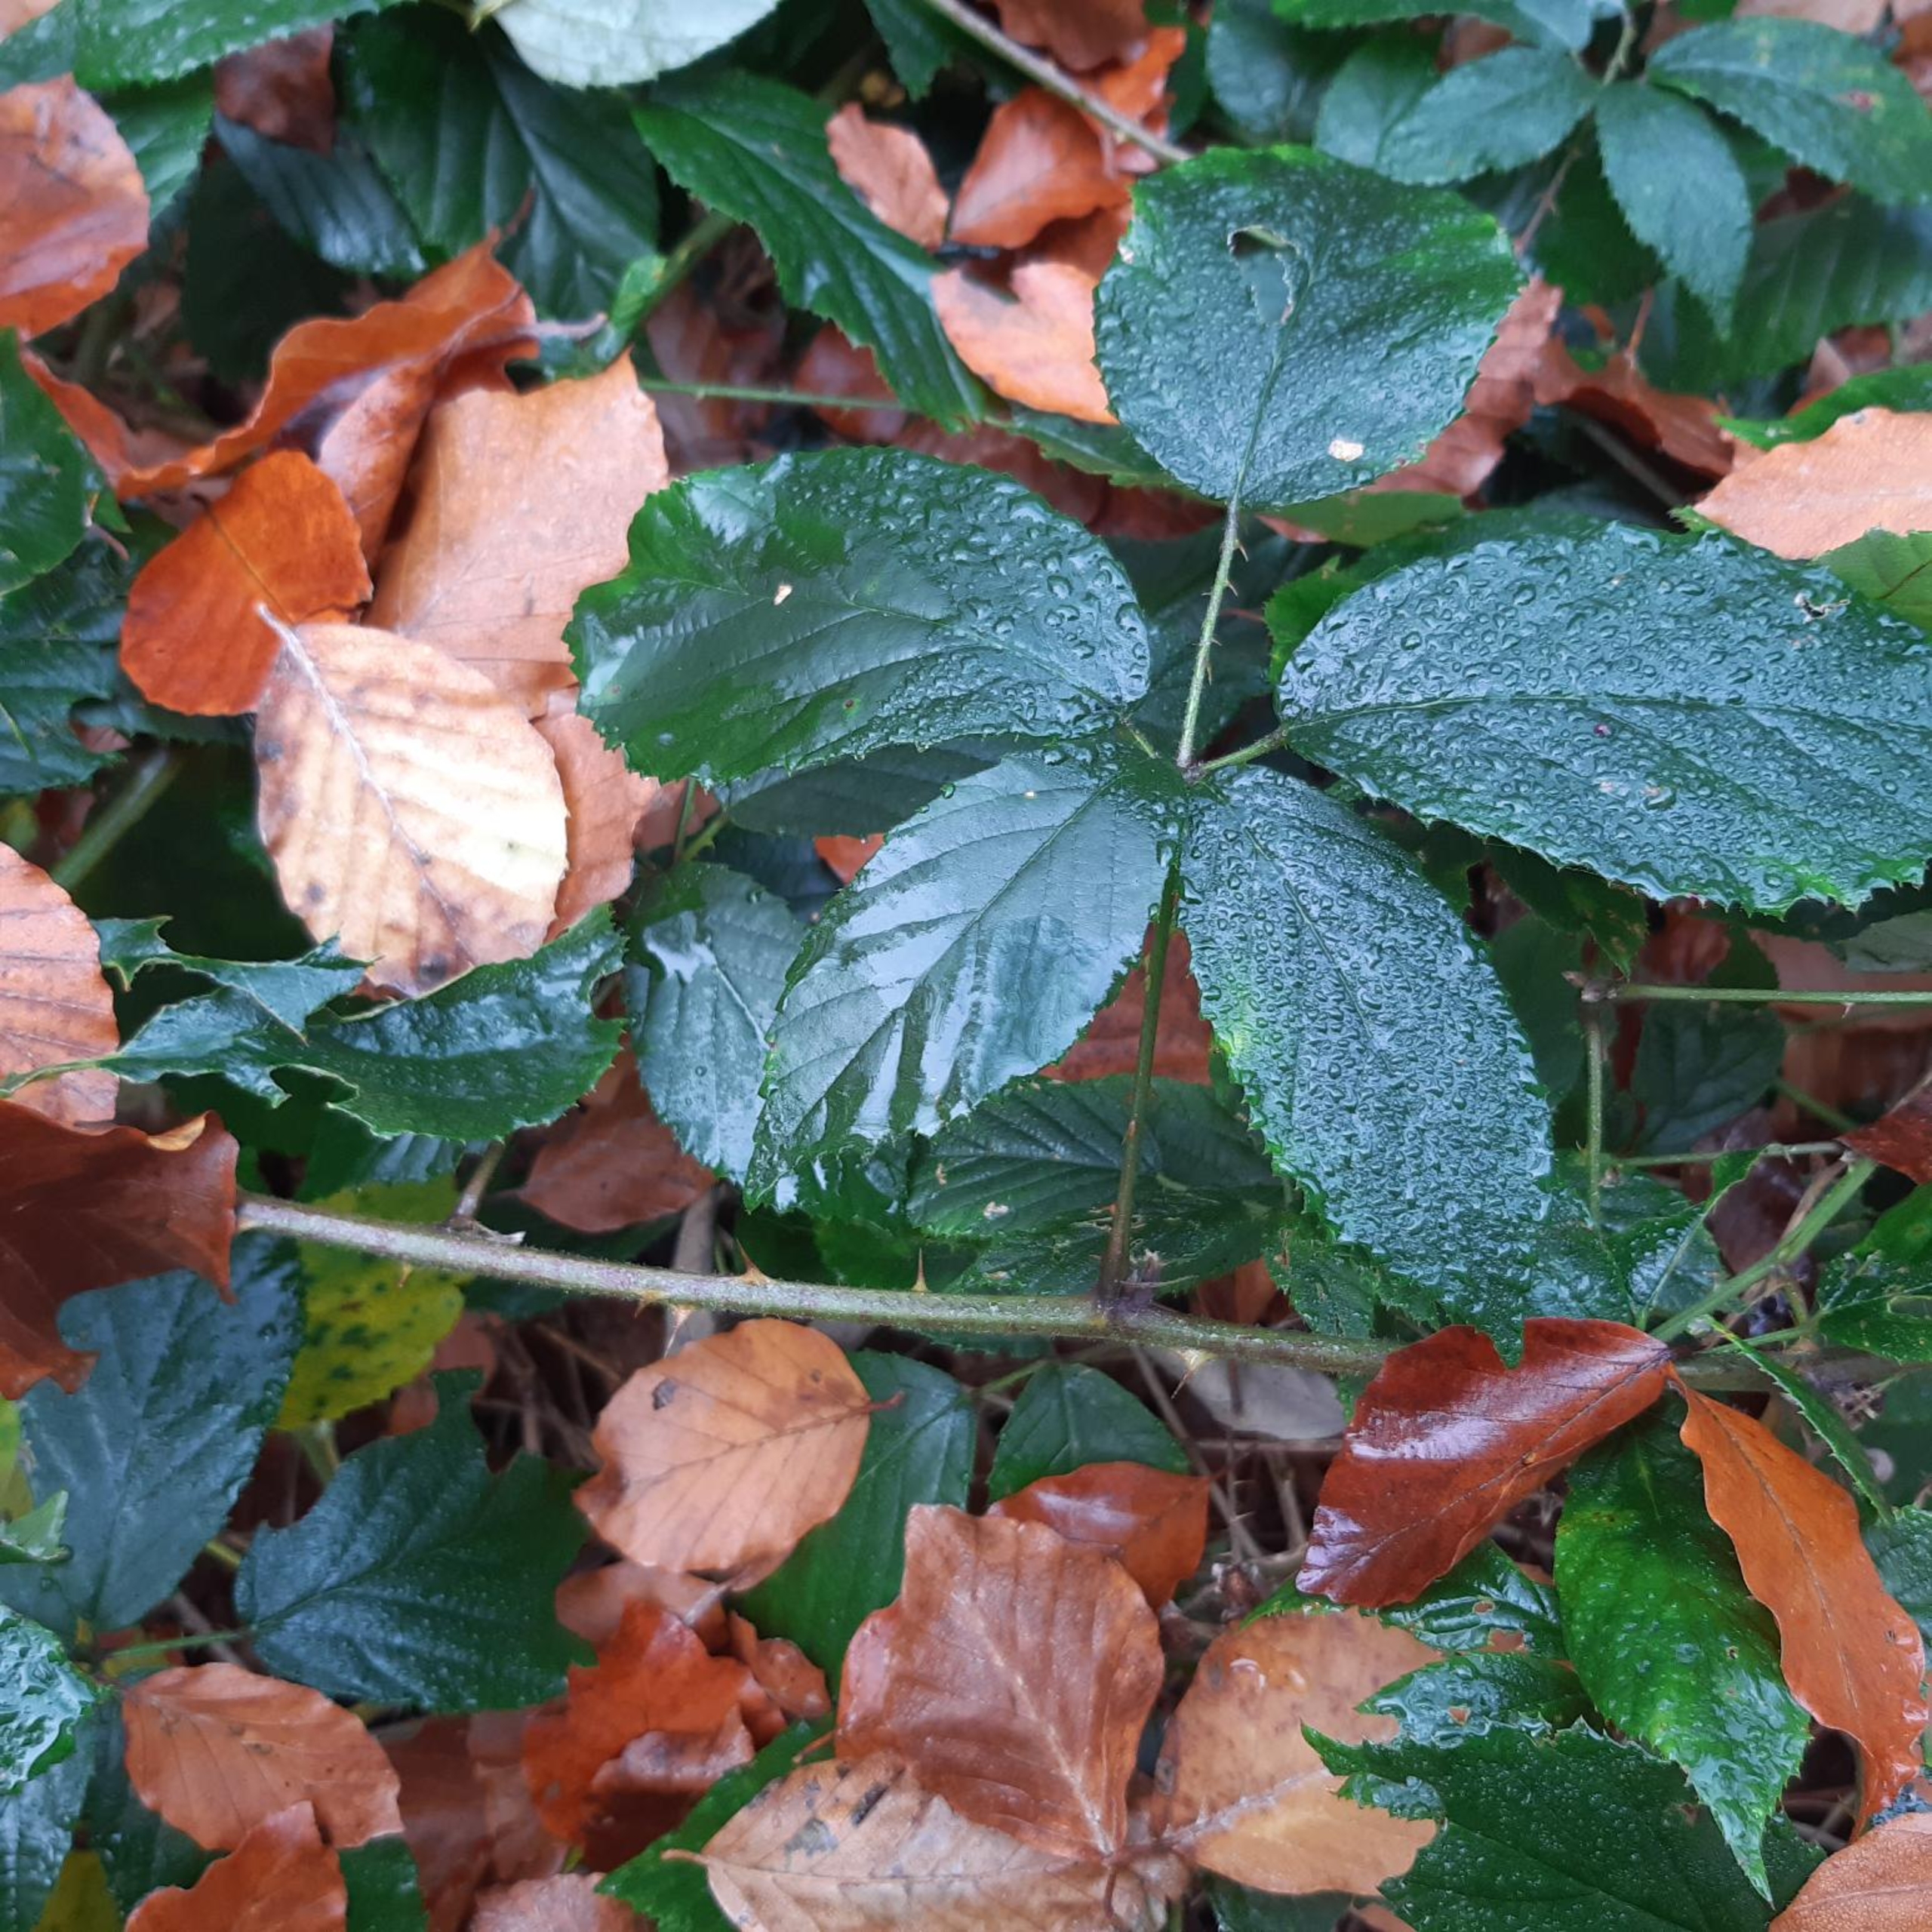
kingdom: Plantae
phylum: Tracheophyta
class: Magnoliopsida
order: Rosales
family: Rosaceae
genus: Rubus
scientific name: Rubus radula
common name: Rasperu brombær
